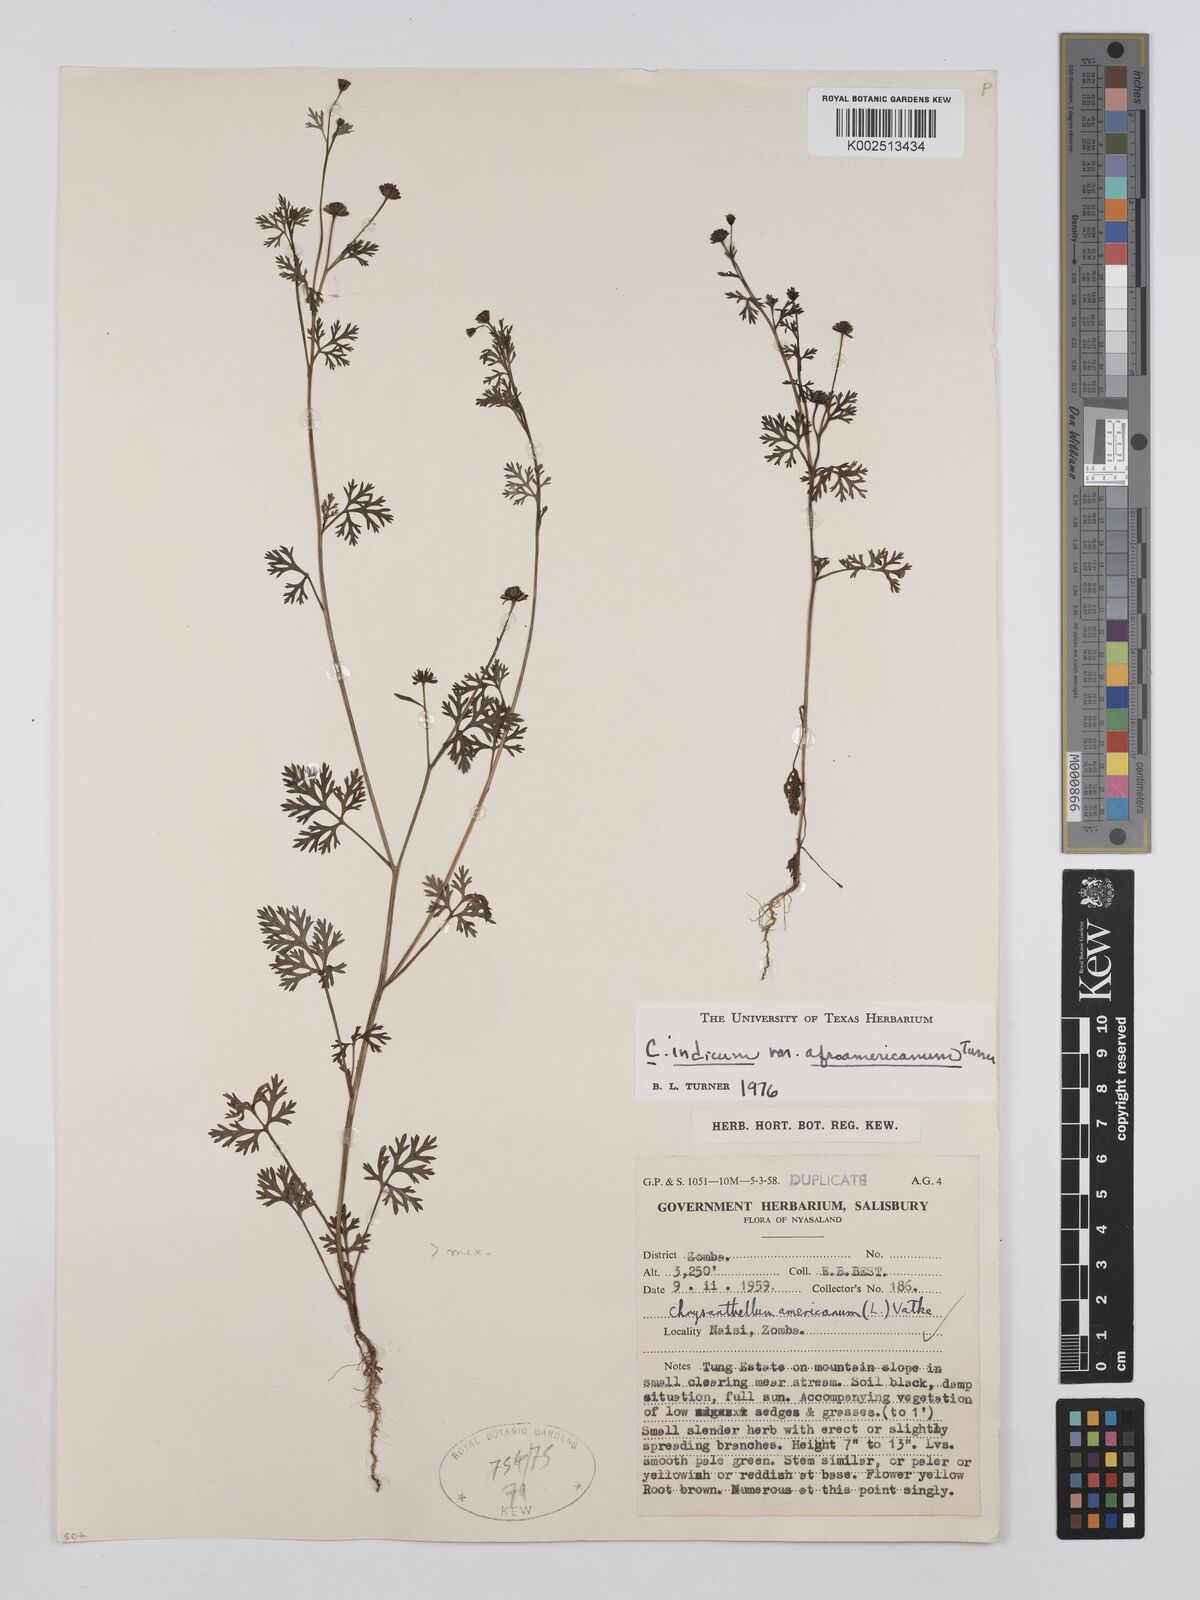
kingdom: Plantae
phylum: Tracheophyta
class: Magnoliopsida
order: Asterales
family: Asteraceae
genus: Chrysanthellum
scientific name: Chrysanthellum indicum
